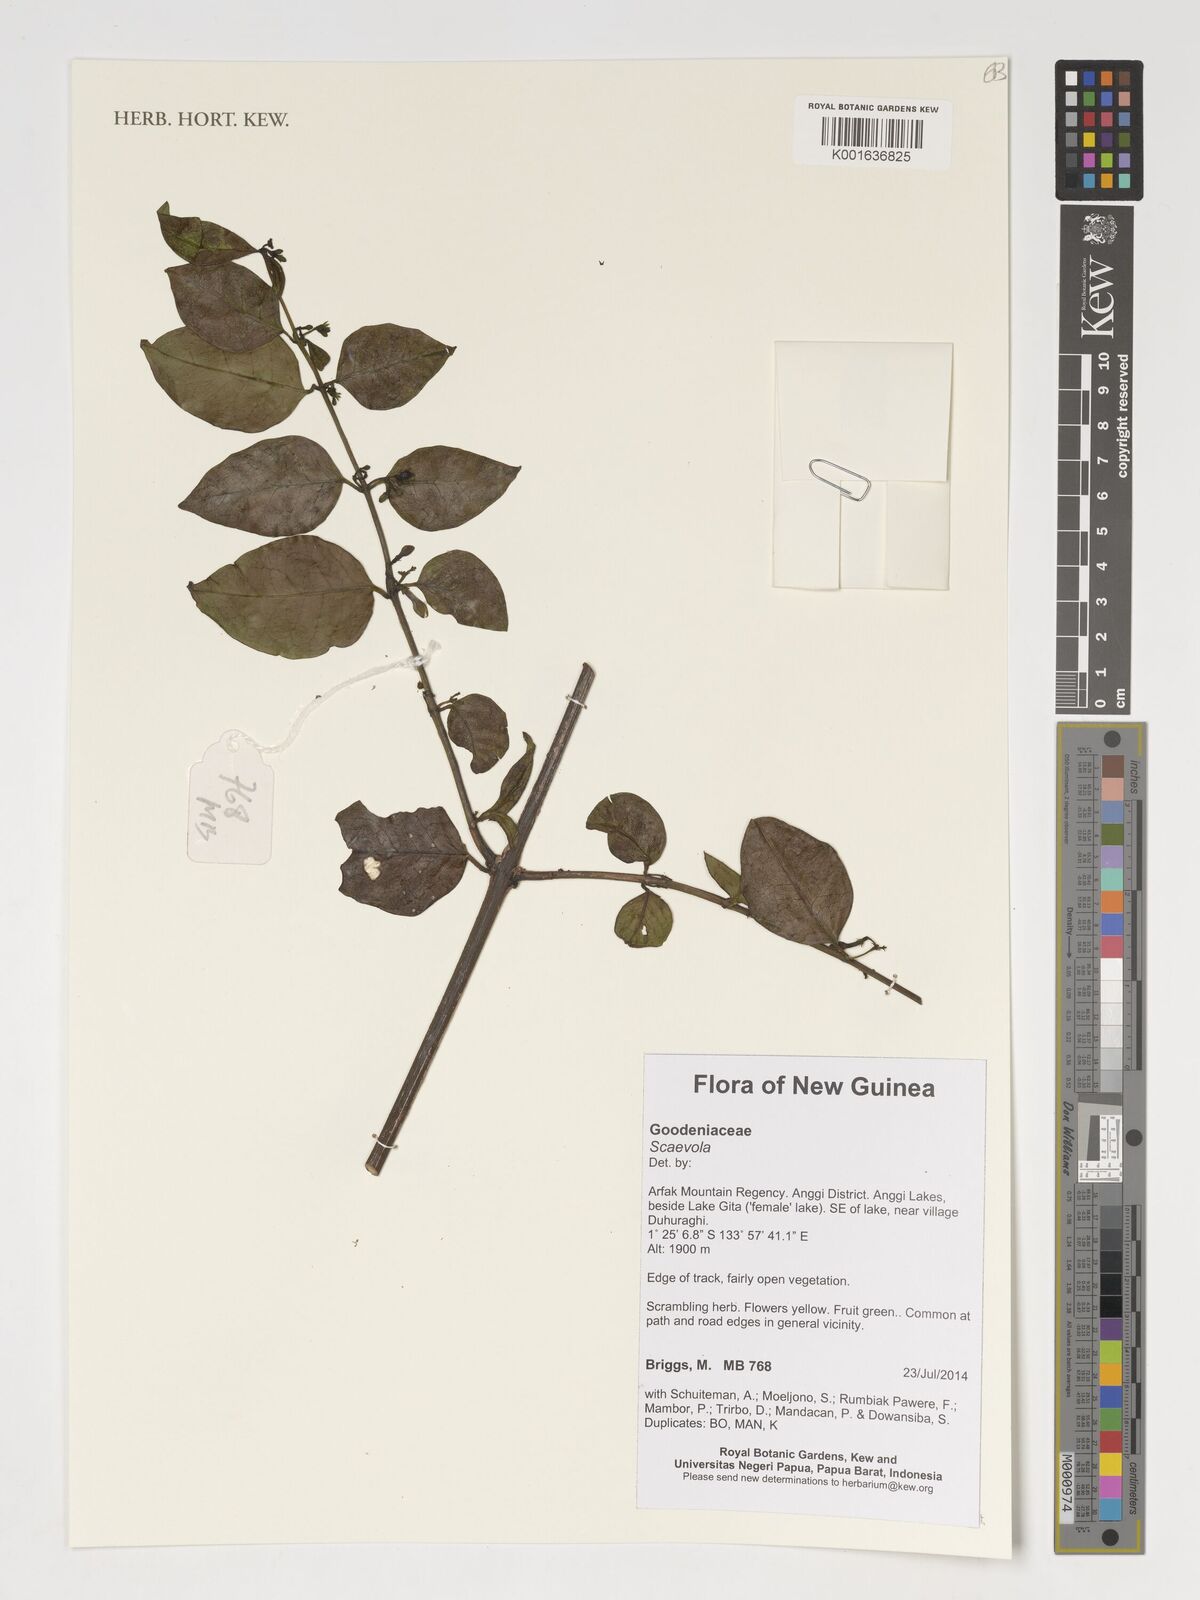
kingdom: Plantae
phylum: Tracheophyta
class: Magnoliopsida
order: Asterales
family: Goodeniaceae
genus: Scaevola
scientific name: Scaevola
